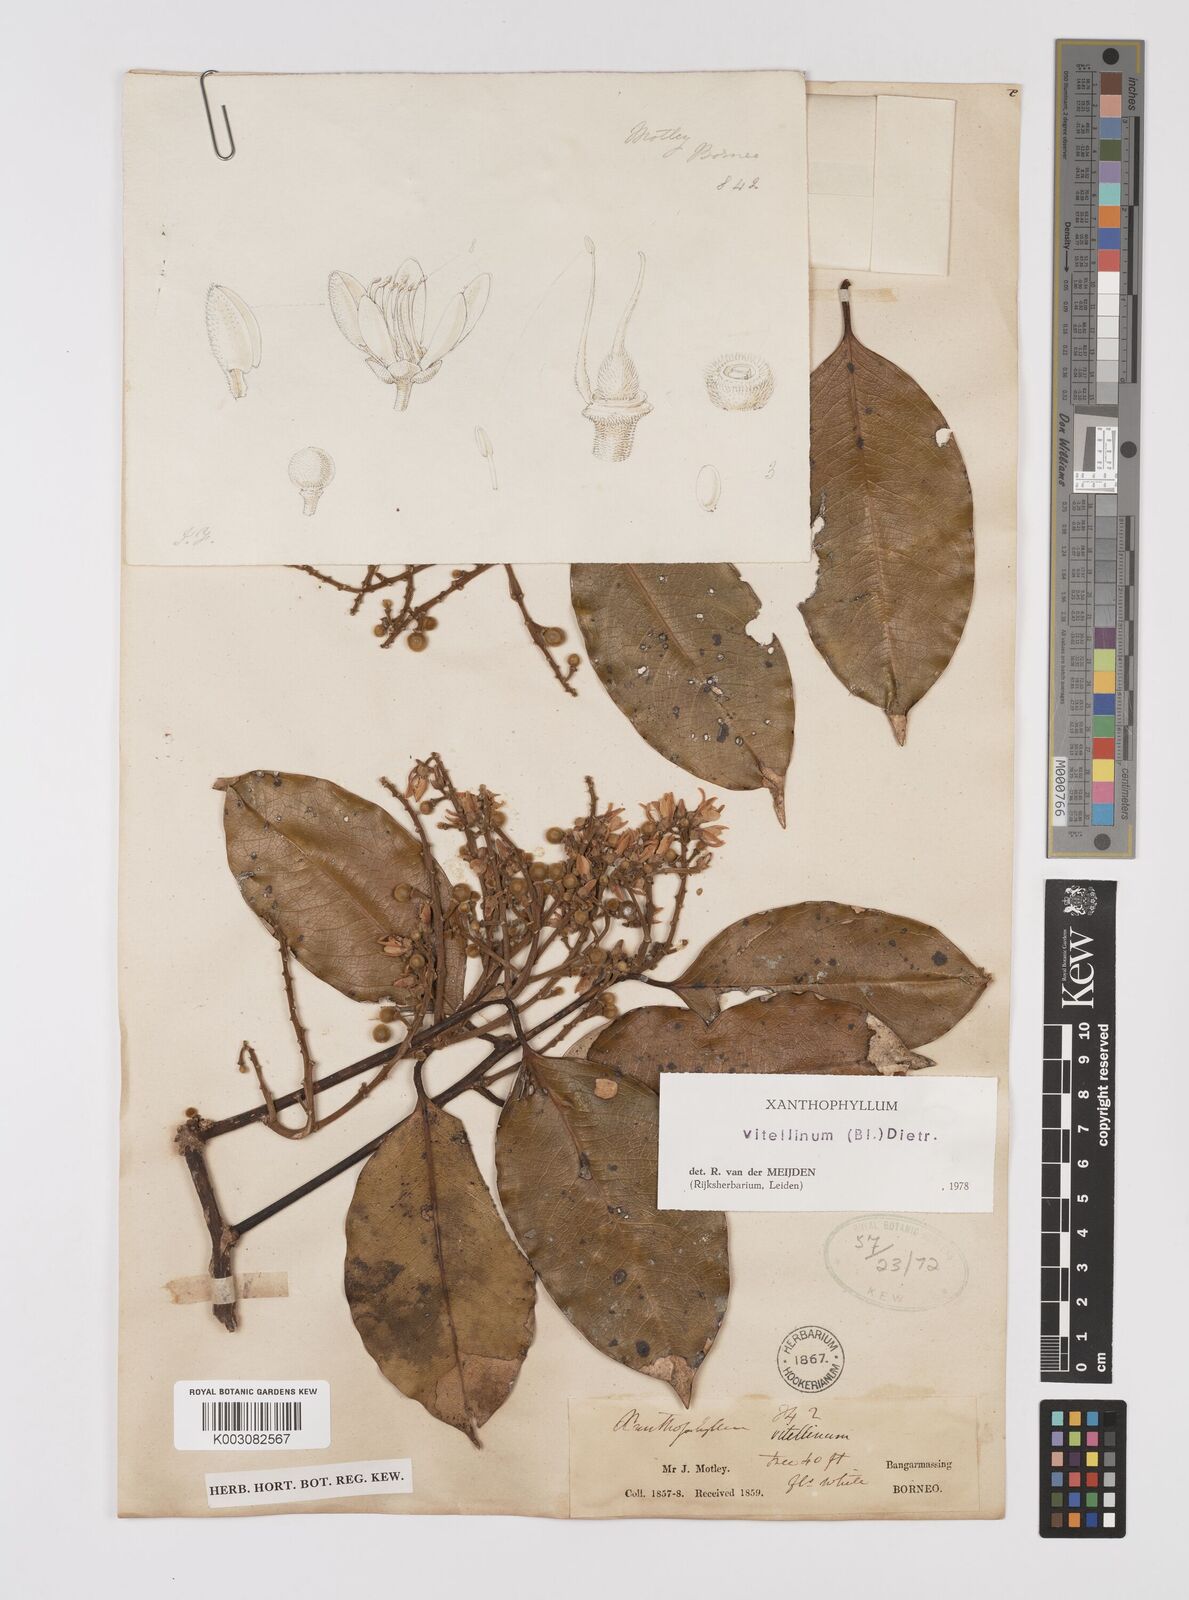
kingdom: Plantae
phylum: Tracheophyta
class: Magnoliopsida
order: Fabales
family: Polygalaceae
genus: Xanthophyllum
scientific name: Xanthophyllum vitellinum
